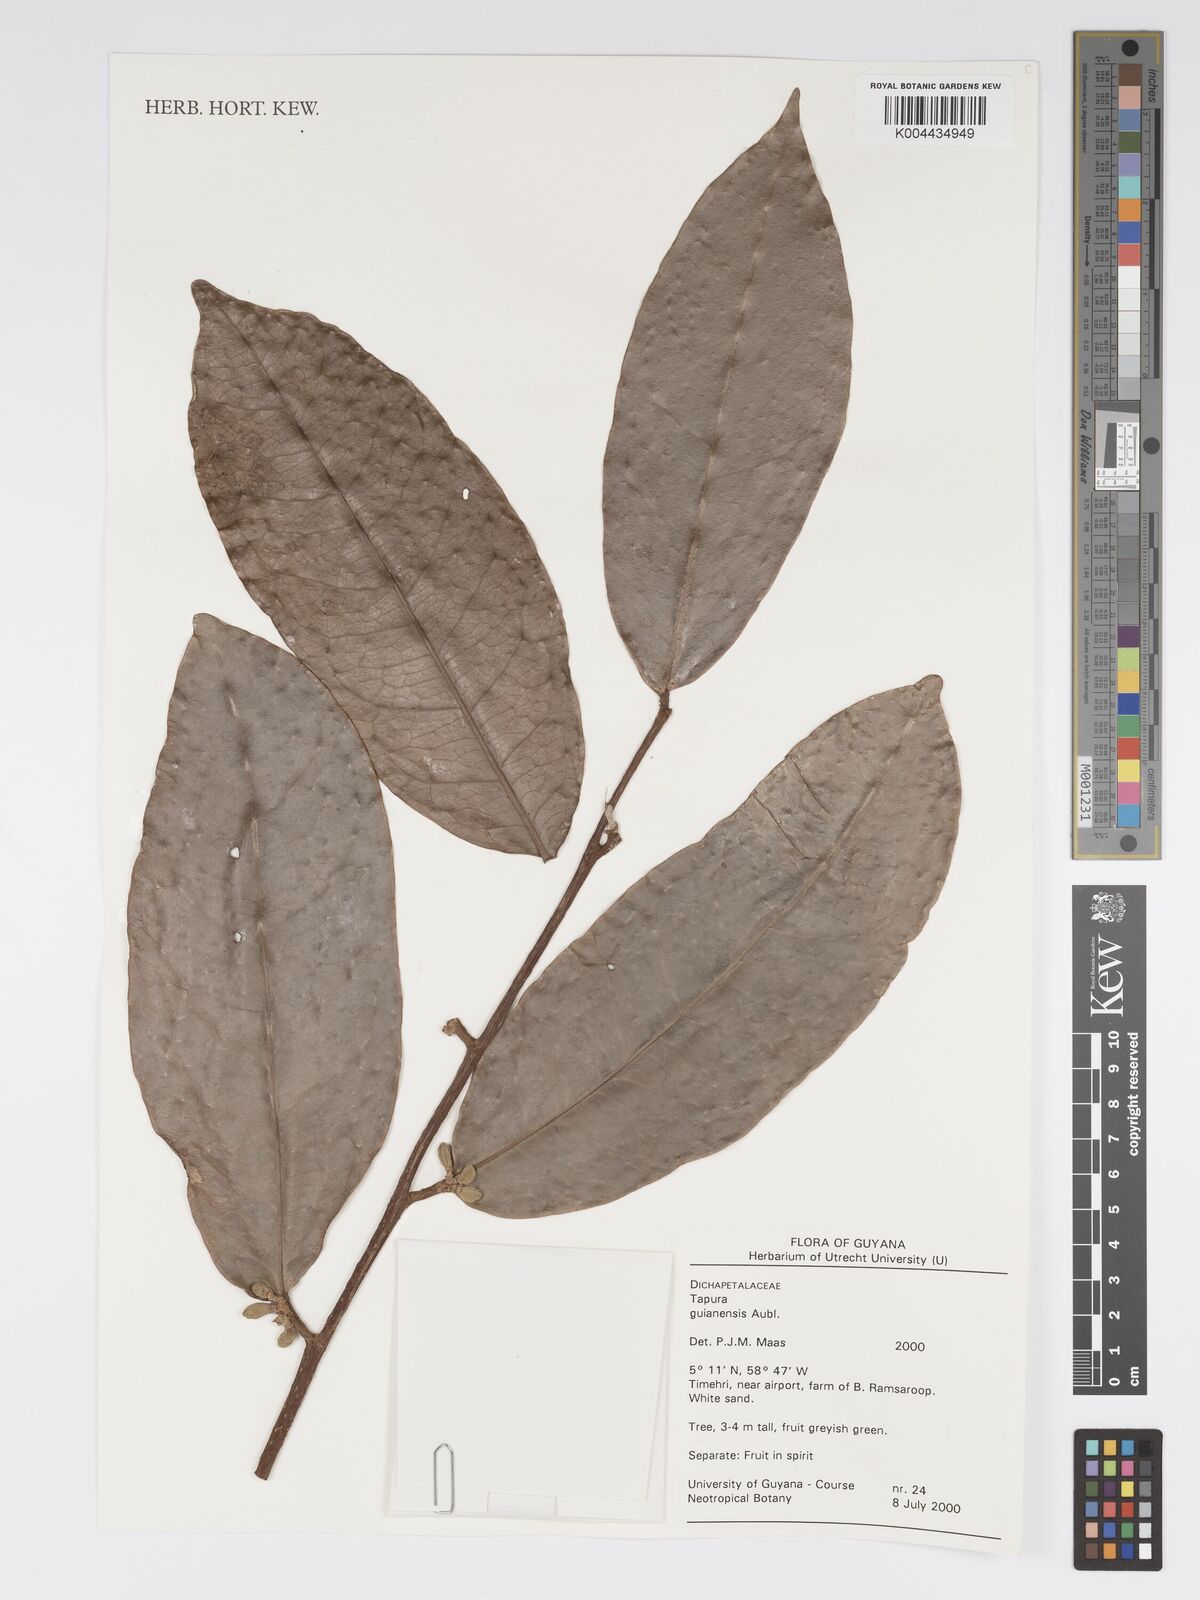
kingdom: Plantae
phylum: Tracheophyta
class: Magnoliopsida
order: Malpighiales
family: Dichapetalaceae
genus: Tapura
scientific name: Tapura guianensis
